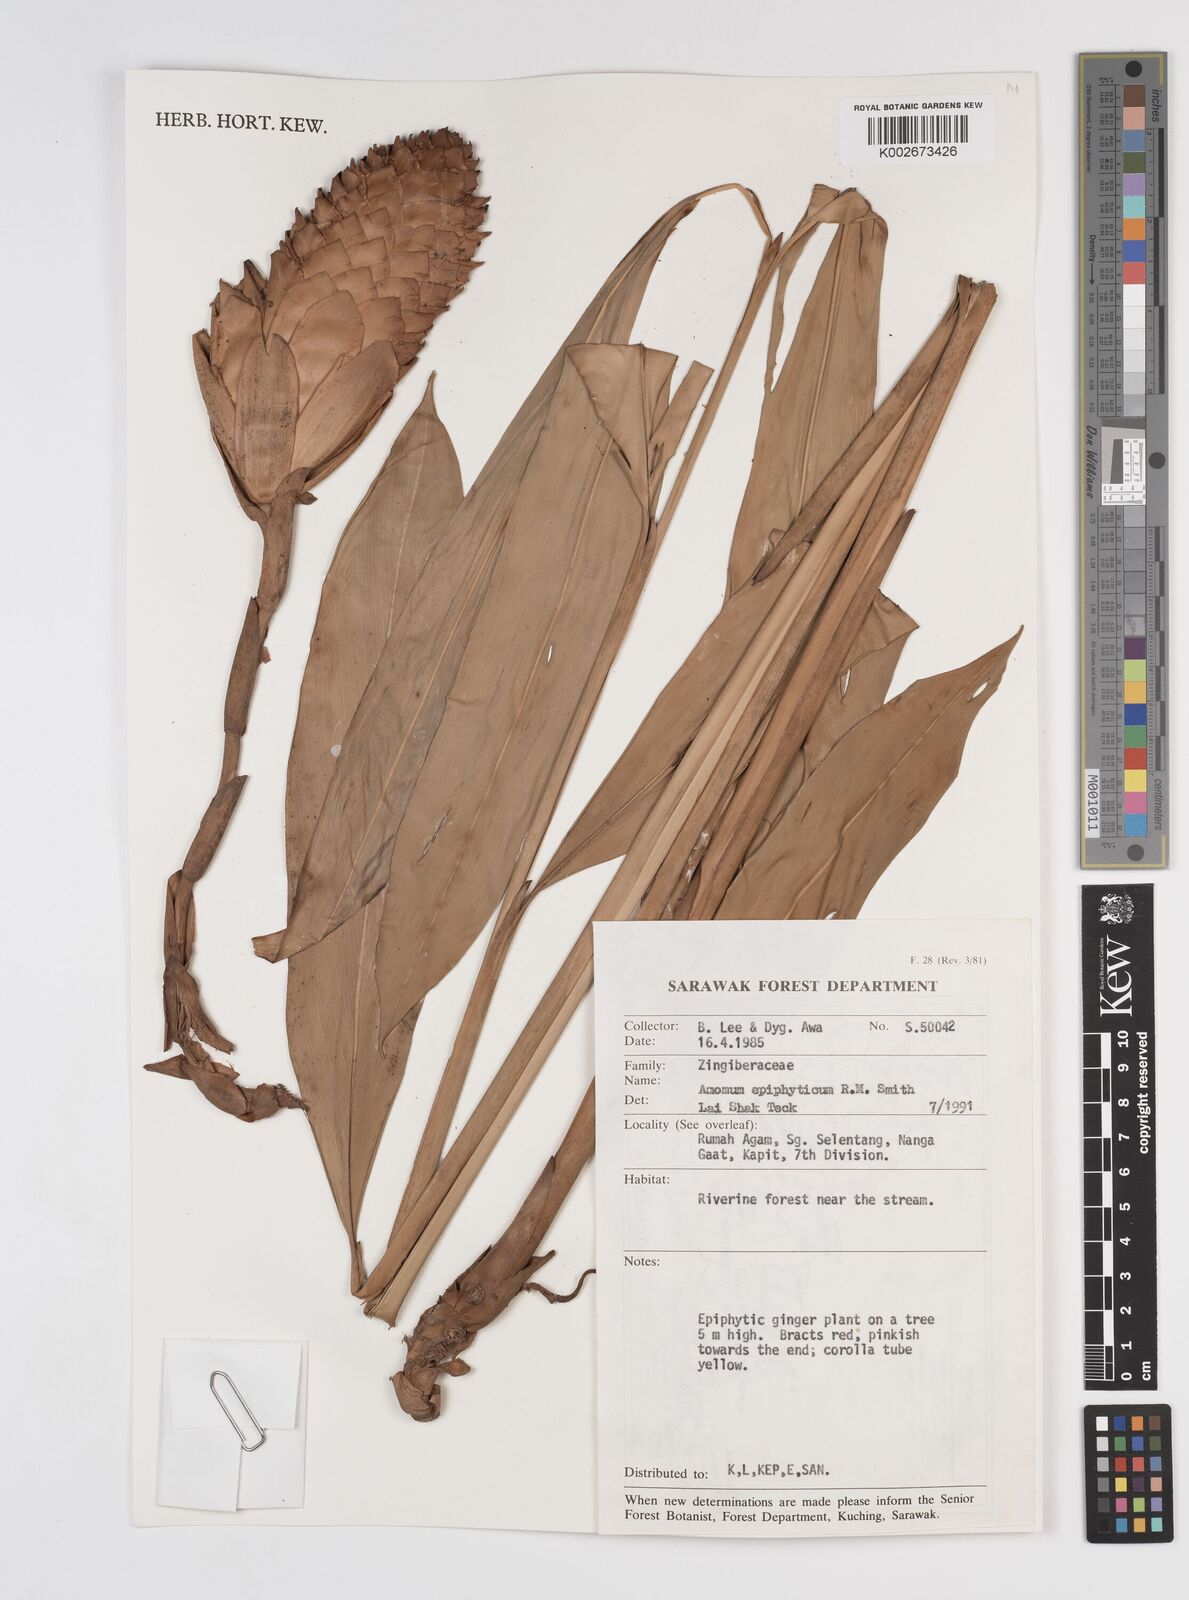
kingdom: Plantae
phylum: Tracheophyta
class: Liliopsida
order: Zingiberales
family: Zingiberaceae
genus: Epiamomum
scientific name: Epiamomum epiphyticum
